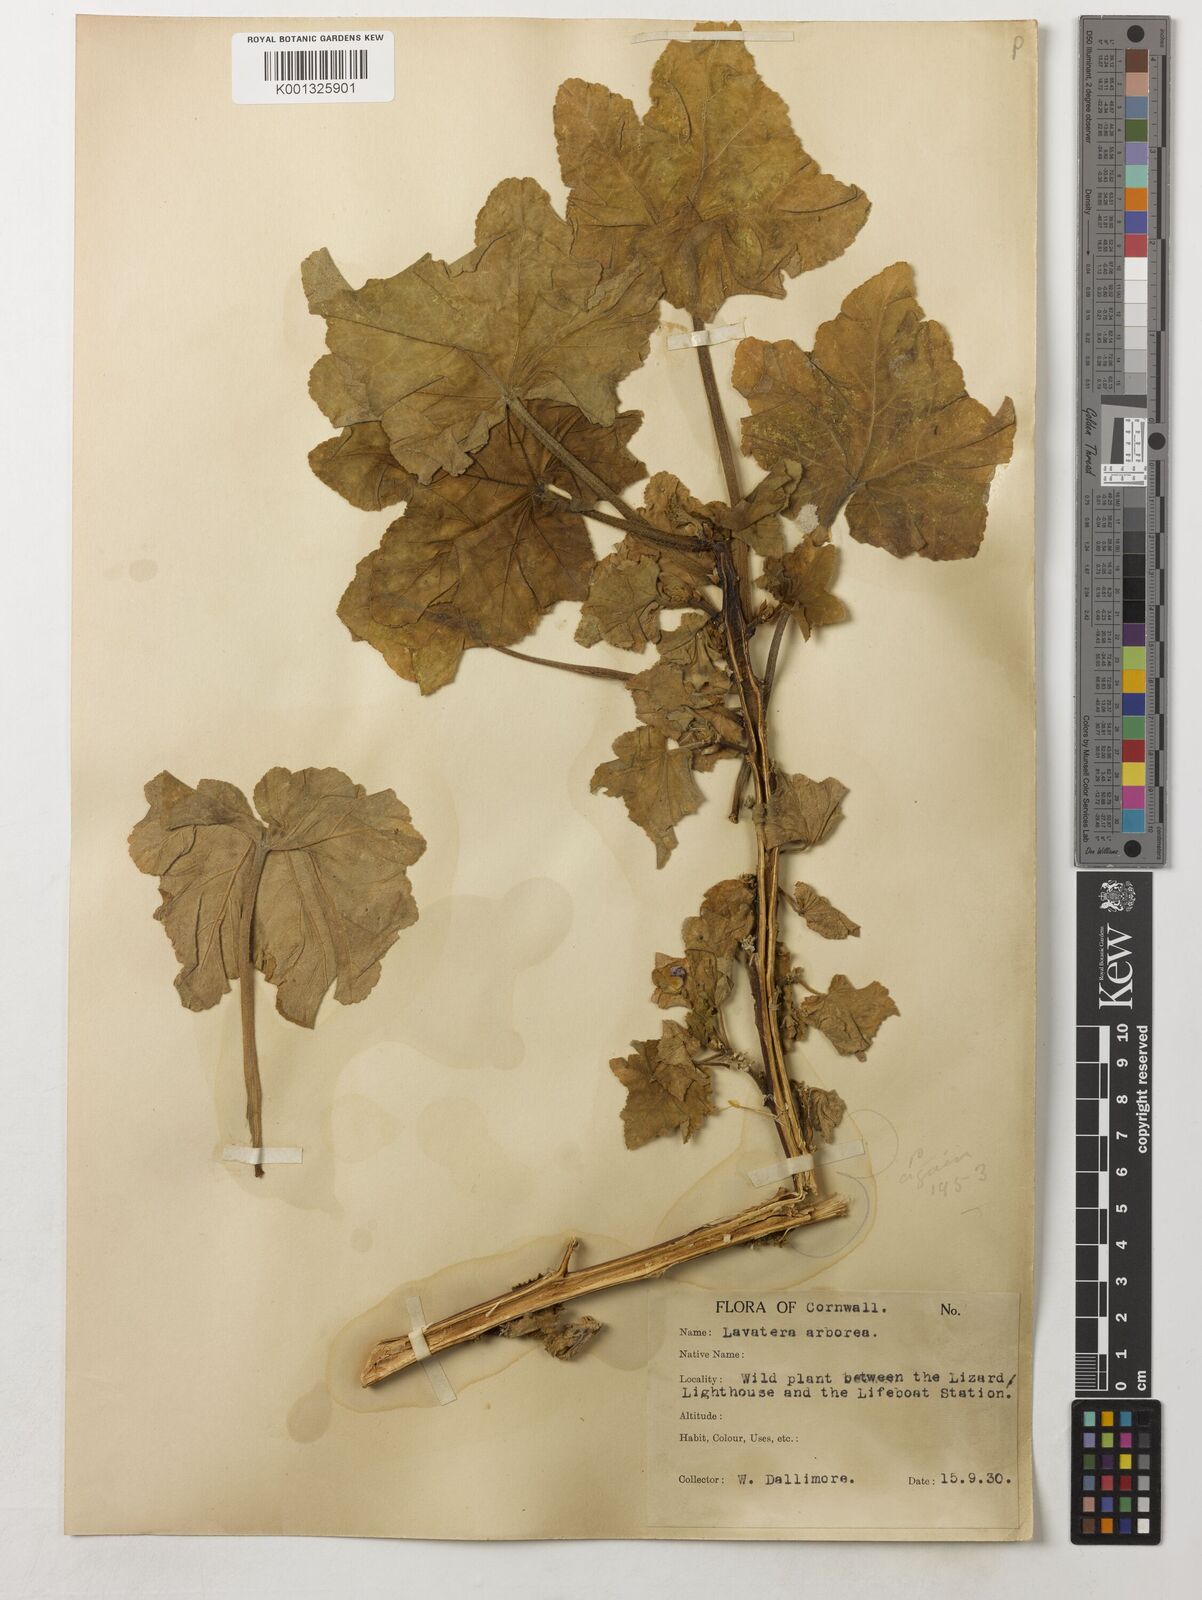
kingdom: Plantae
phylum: Tracheophyta
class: Magnoliopsida
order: Malvales
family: Malvaceae
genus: Malva
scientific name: Malva arborea
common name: Tree mallow
